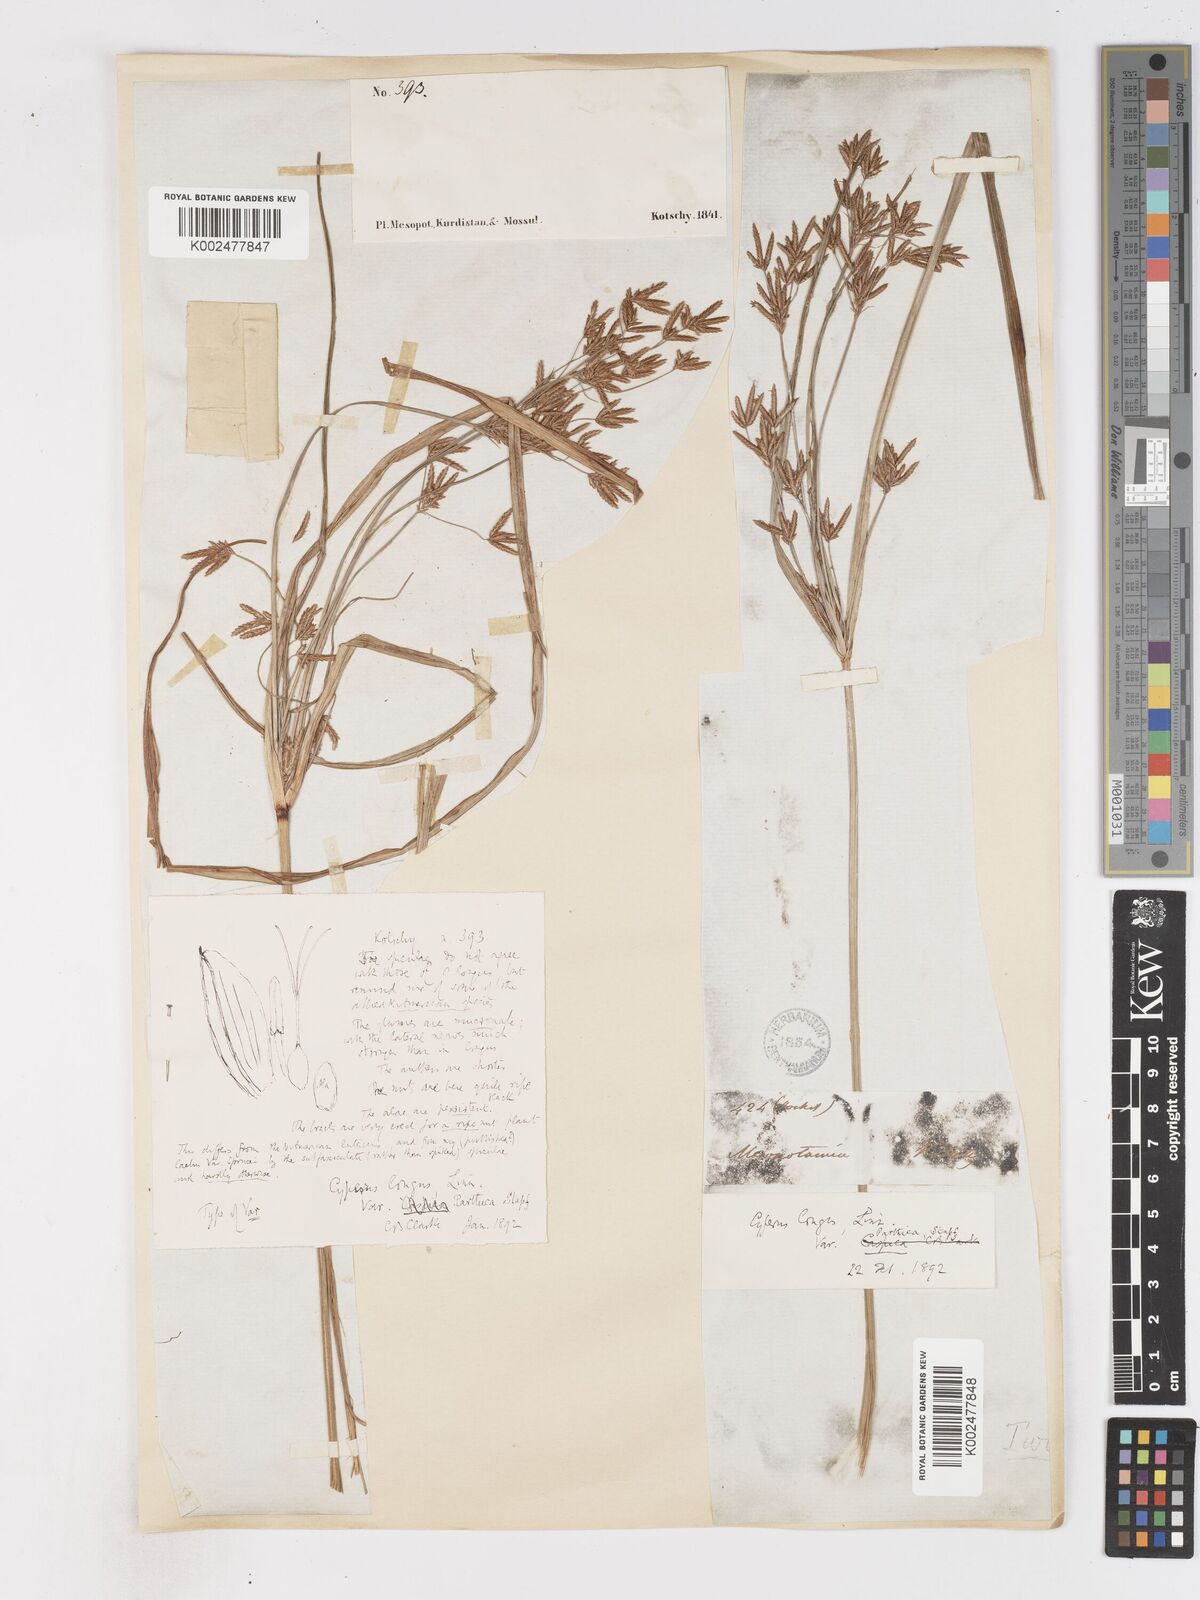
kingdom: Plantae
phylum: Tracheophyta
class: Liliopsida
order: Poales
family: Cyperaceae
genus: Cyperus
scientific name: Cyperus longus
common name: Galingale
